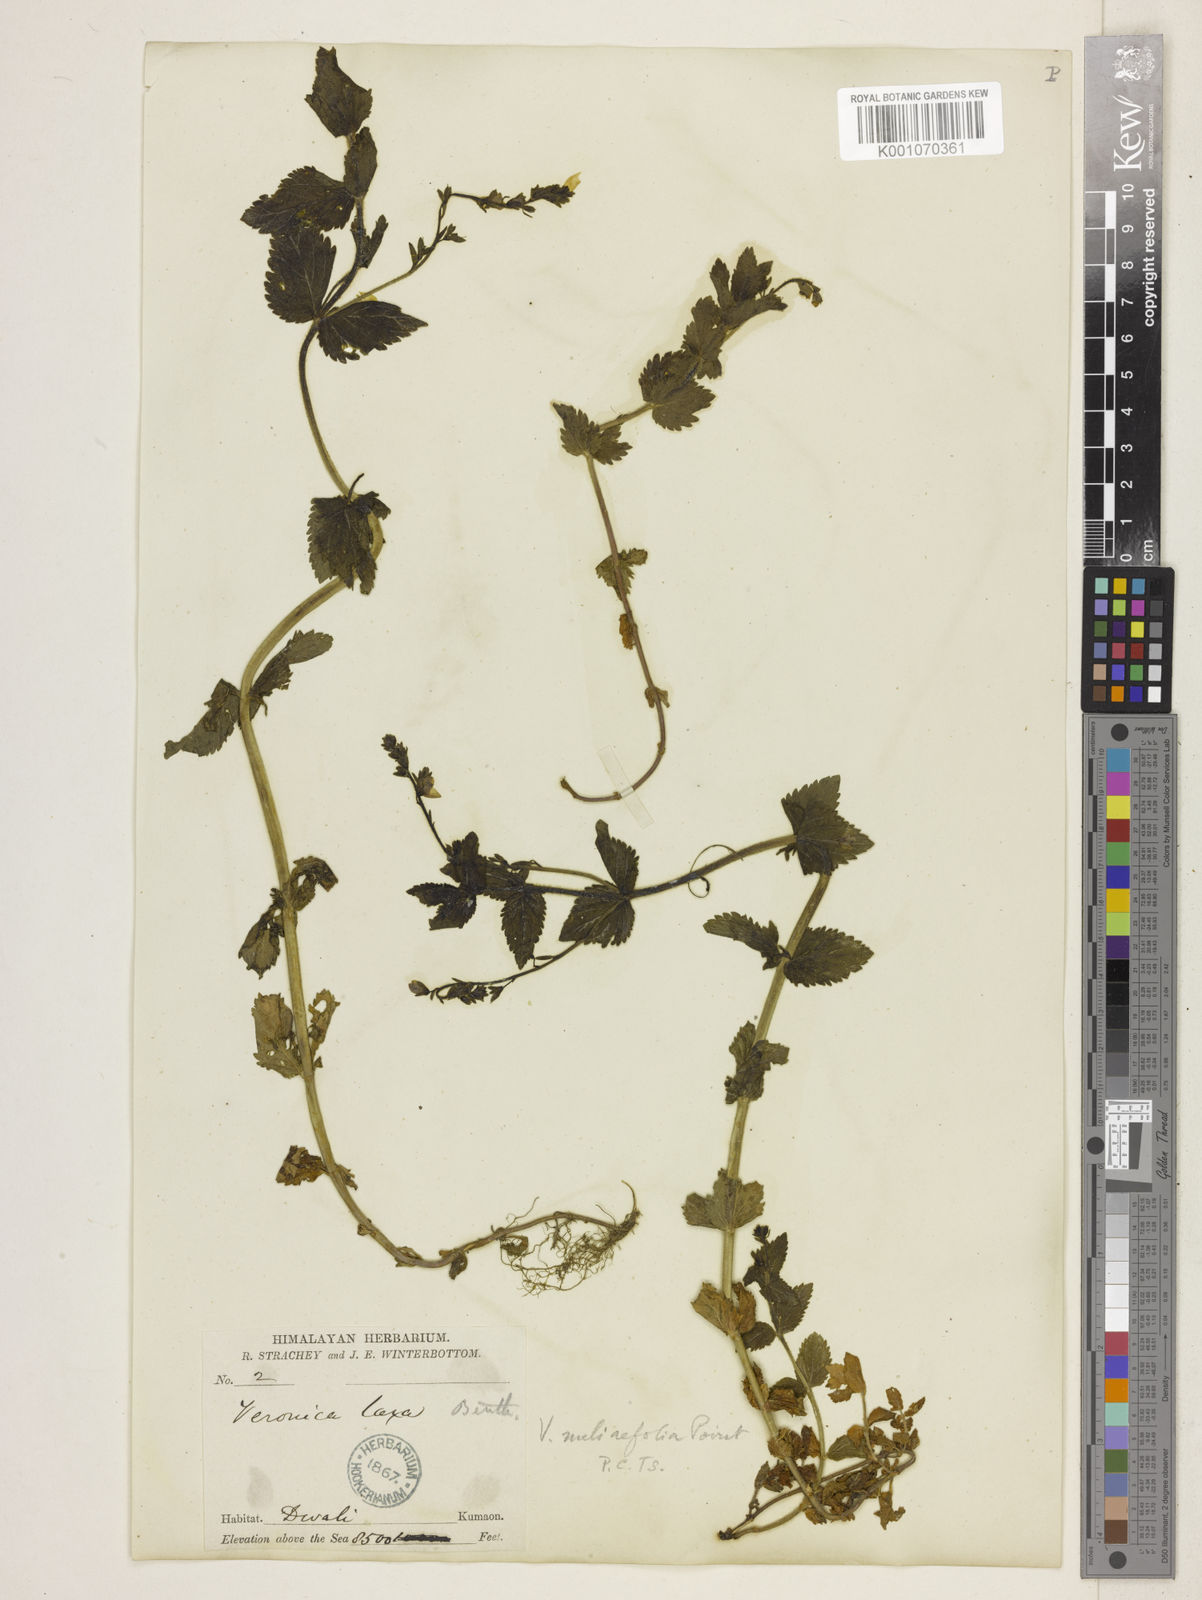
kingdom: Plantae
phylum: Tracheophyta
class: Magnoliopsida
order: Lamiales
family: Plantaginaceae
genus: Veronica
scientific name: Veronica laxa
